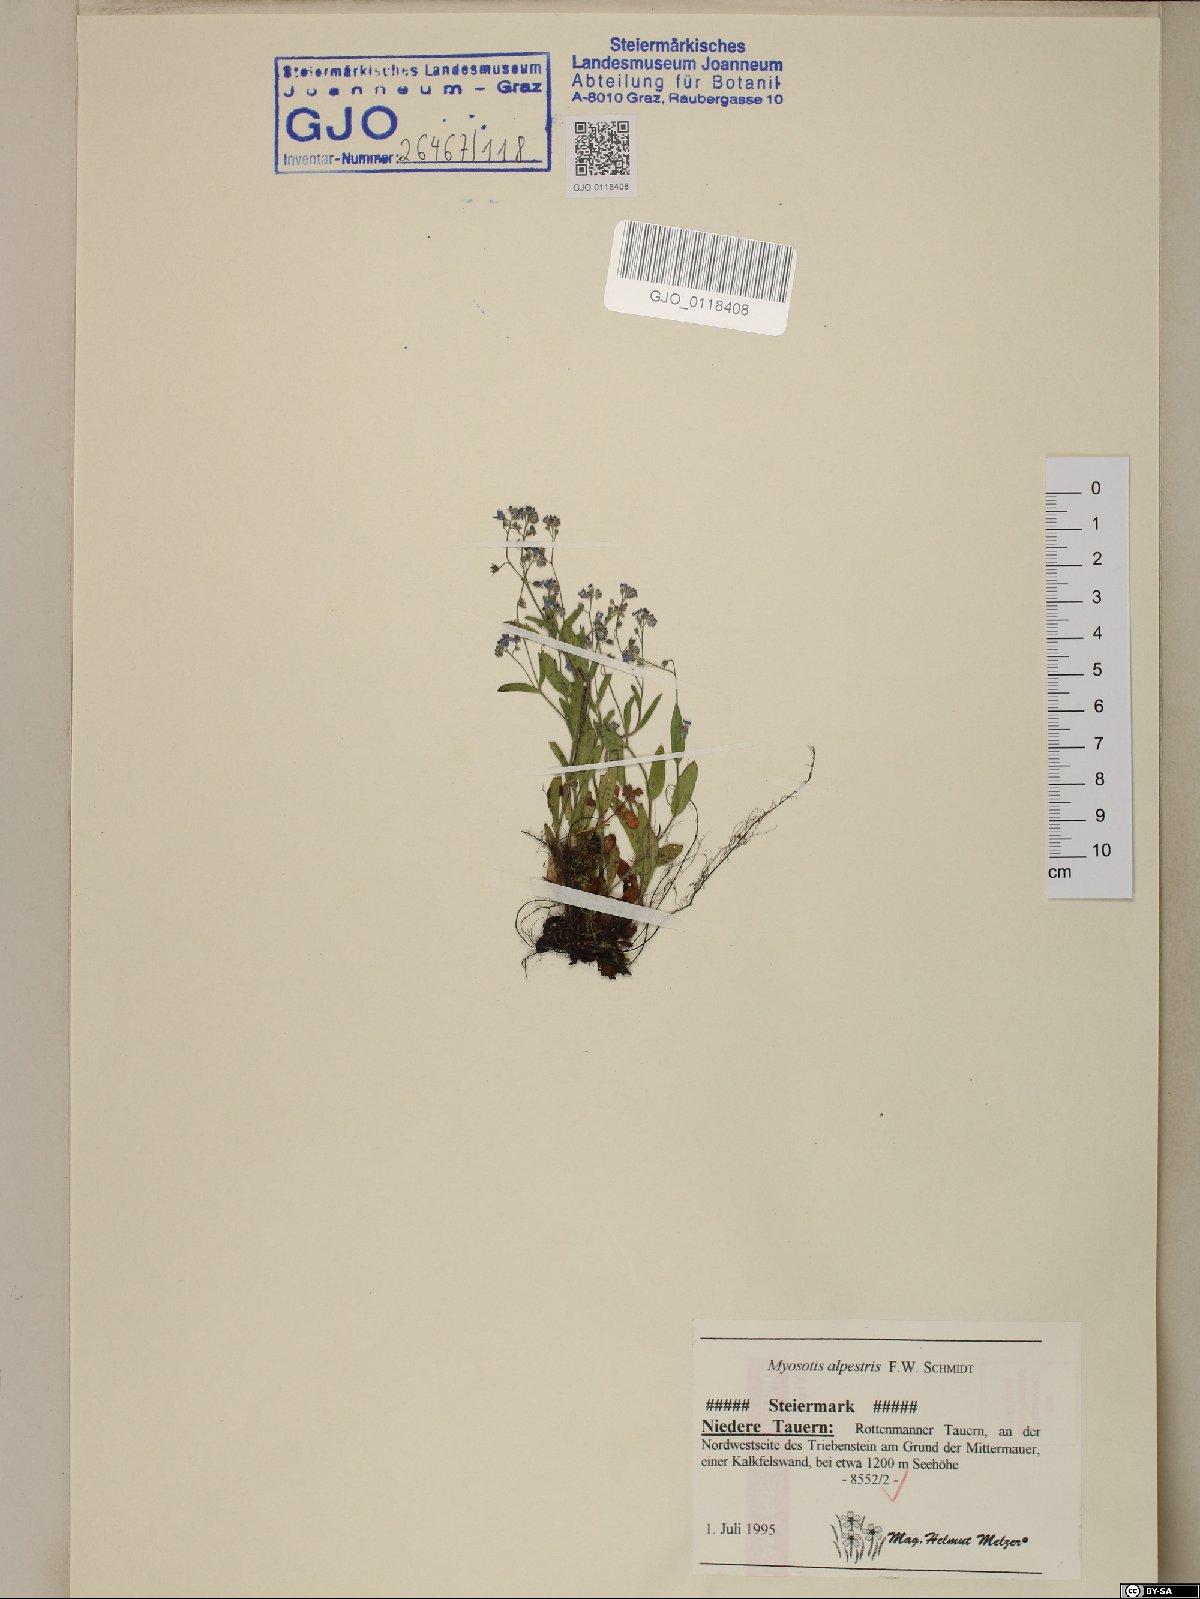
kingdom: Plantae
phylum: Tracheophyta
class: Magnoliopsida
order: Boraginales
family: Boraginaceae
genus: Myosotis
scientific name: Myosotis alpestris
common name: Alpine forget-me-not
